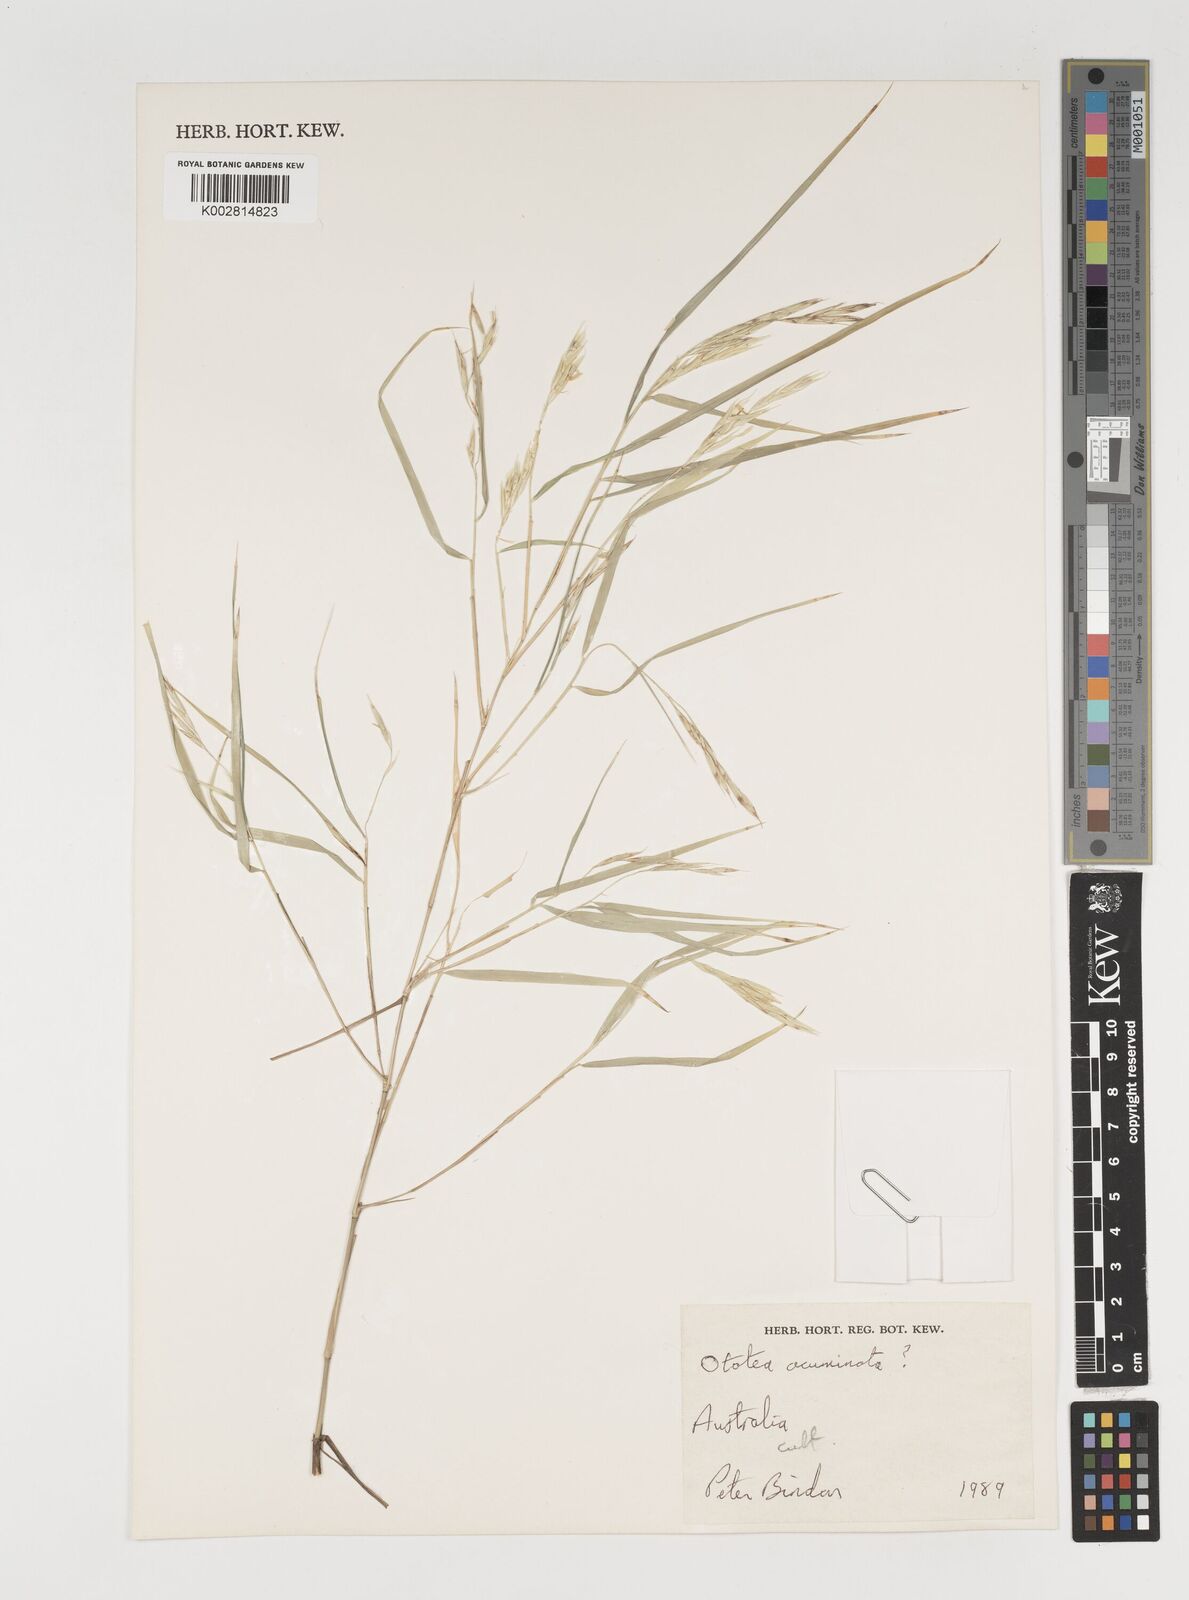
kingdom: Plantae
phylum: Tracheophyta
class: Liliopsida
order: Poales
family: Poaceae
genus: Olmeca
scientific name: Olmeca
